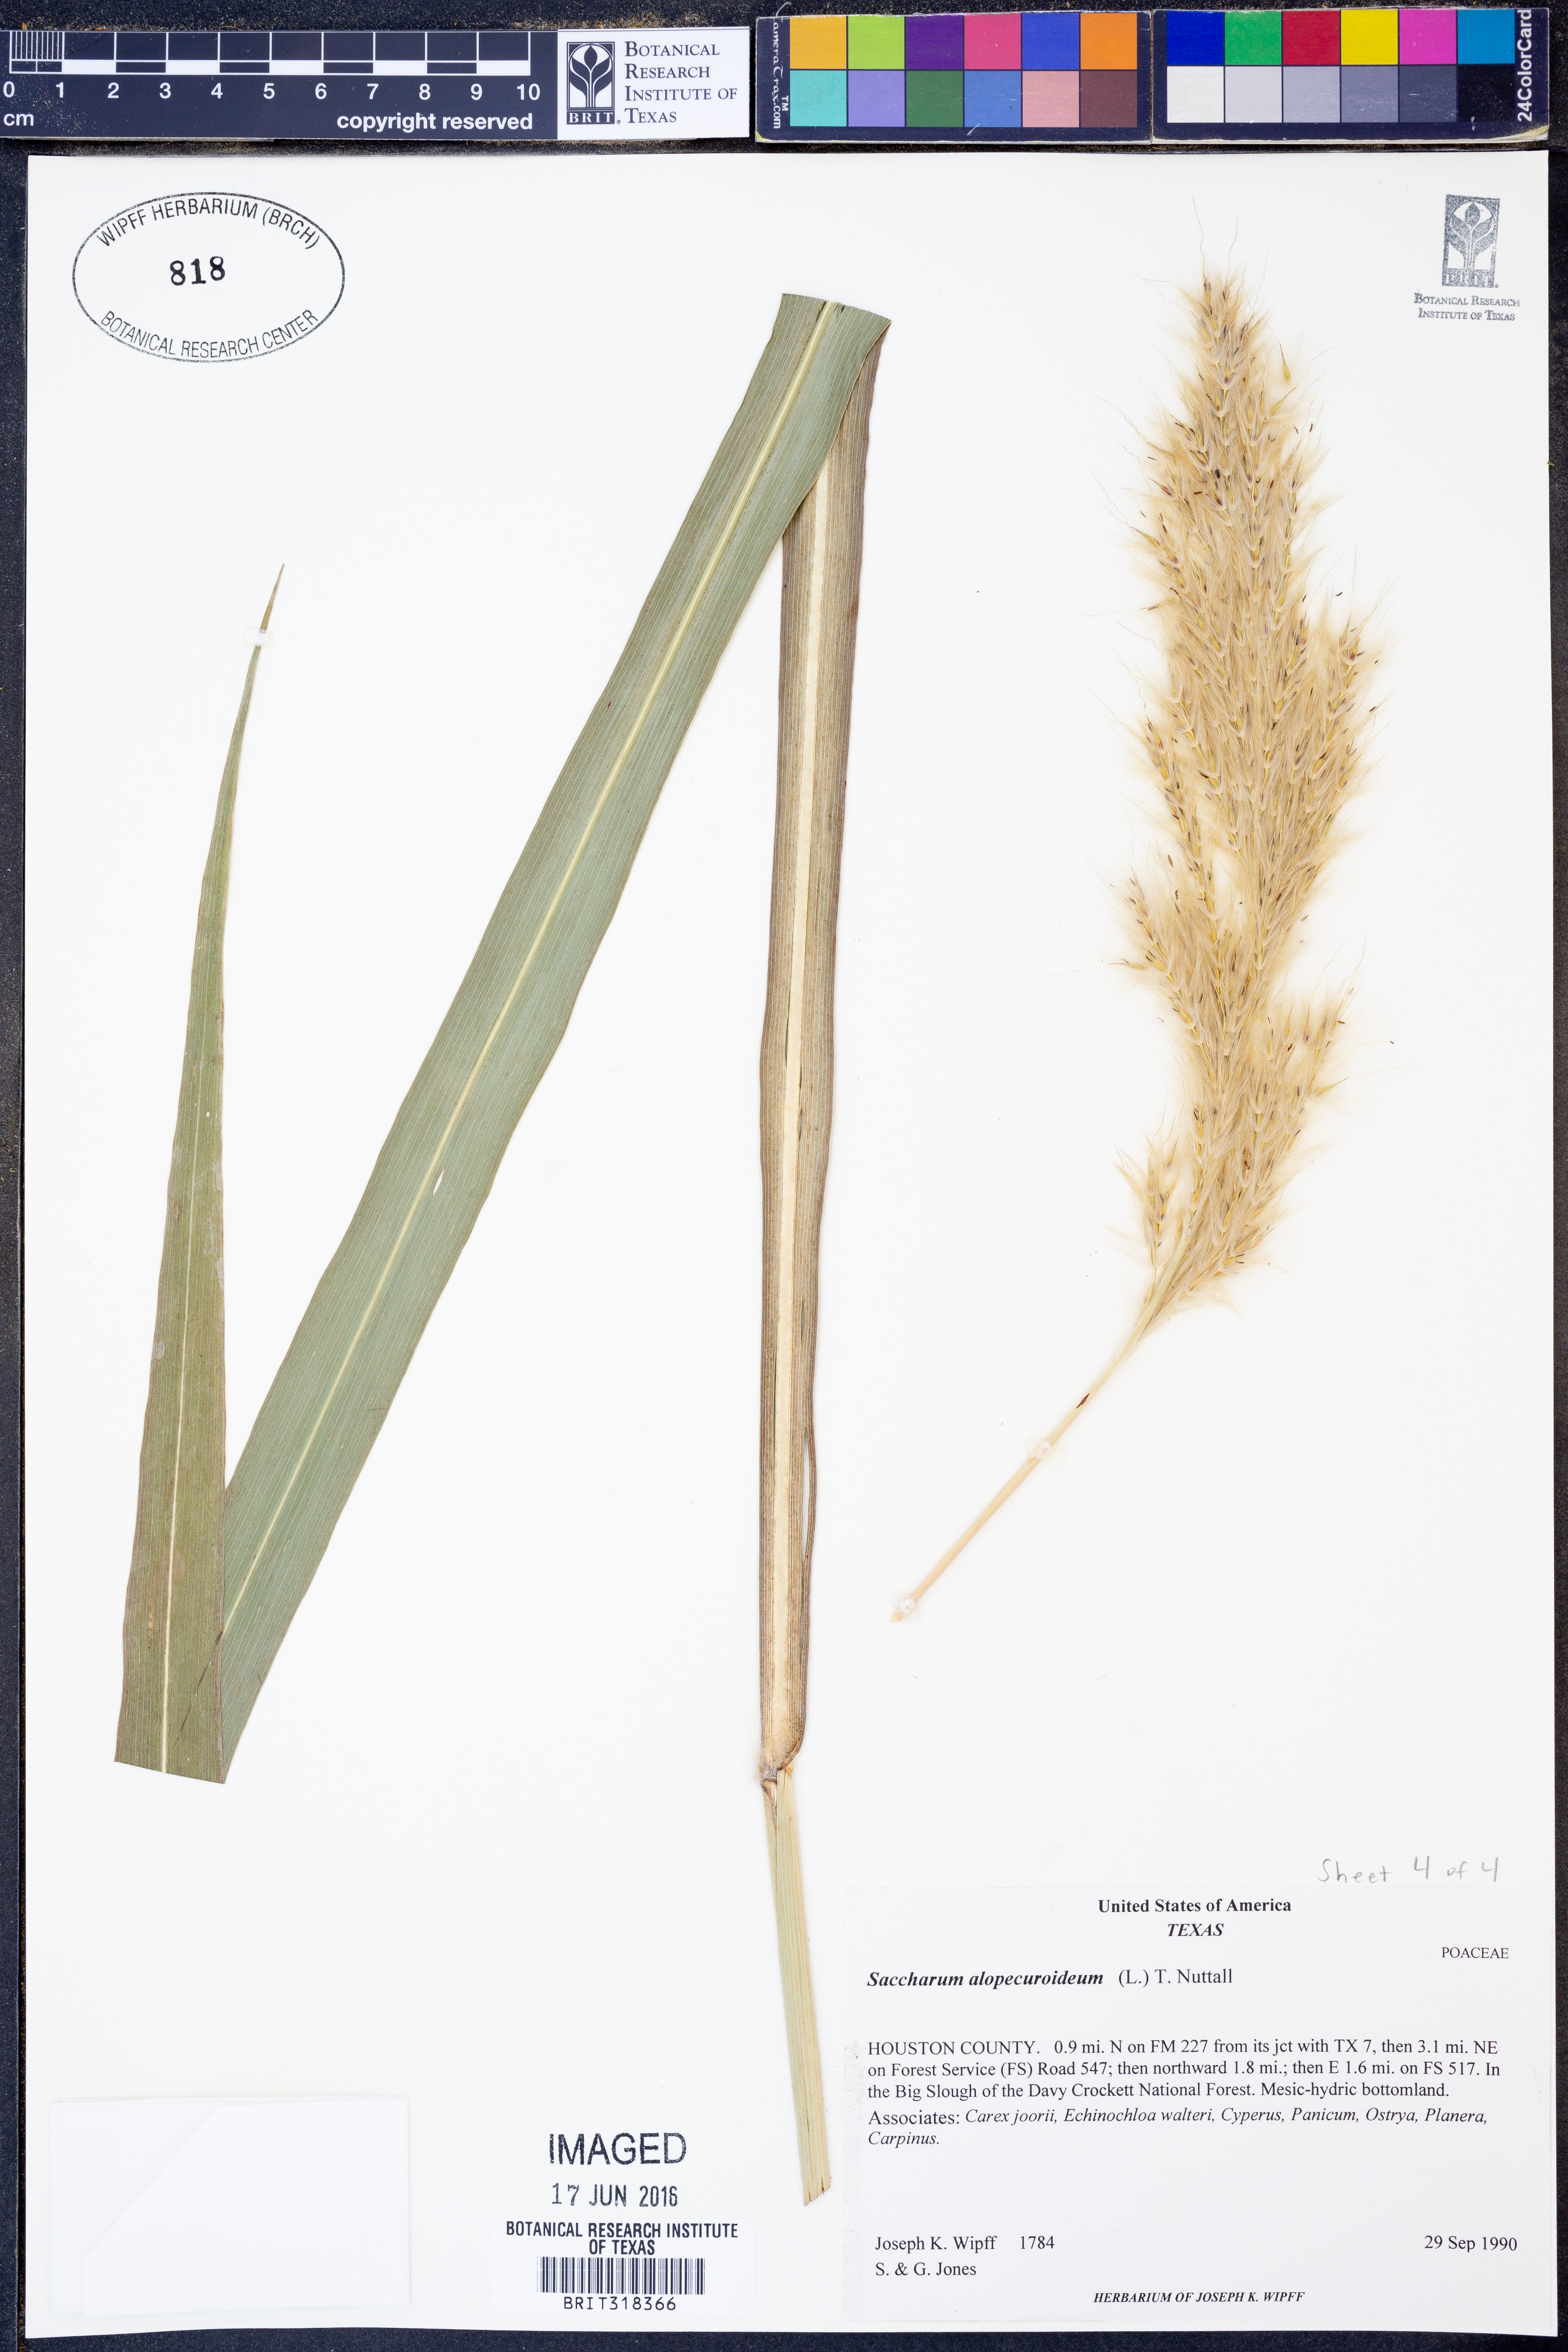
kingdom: Plantae
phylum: Tracheophyta
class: Liliopsida
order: Poales
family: Poaceae
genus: Erianthus
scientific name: Erianthus alopecuroides
